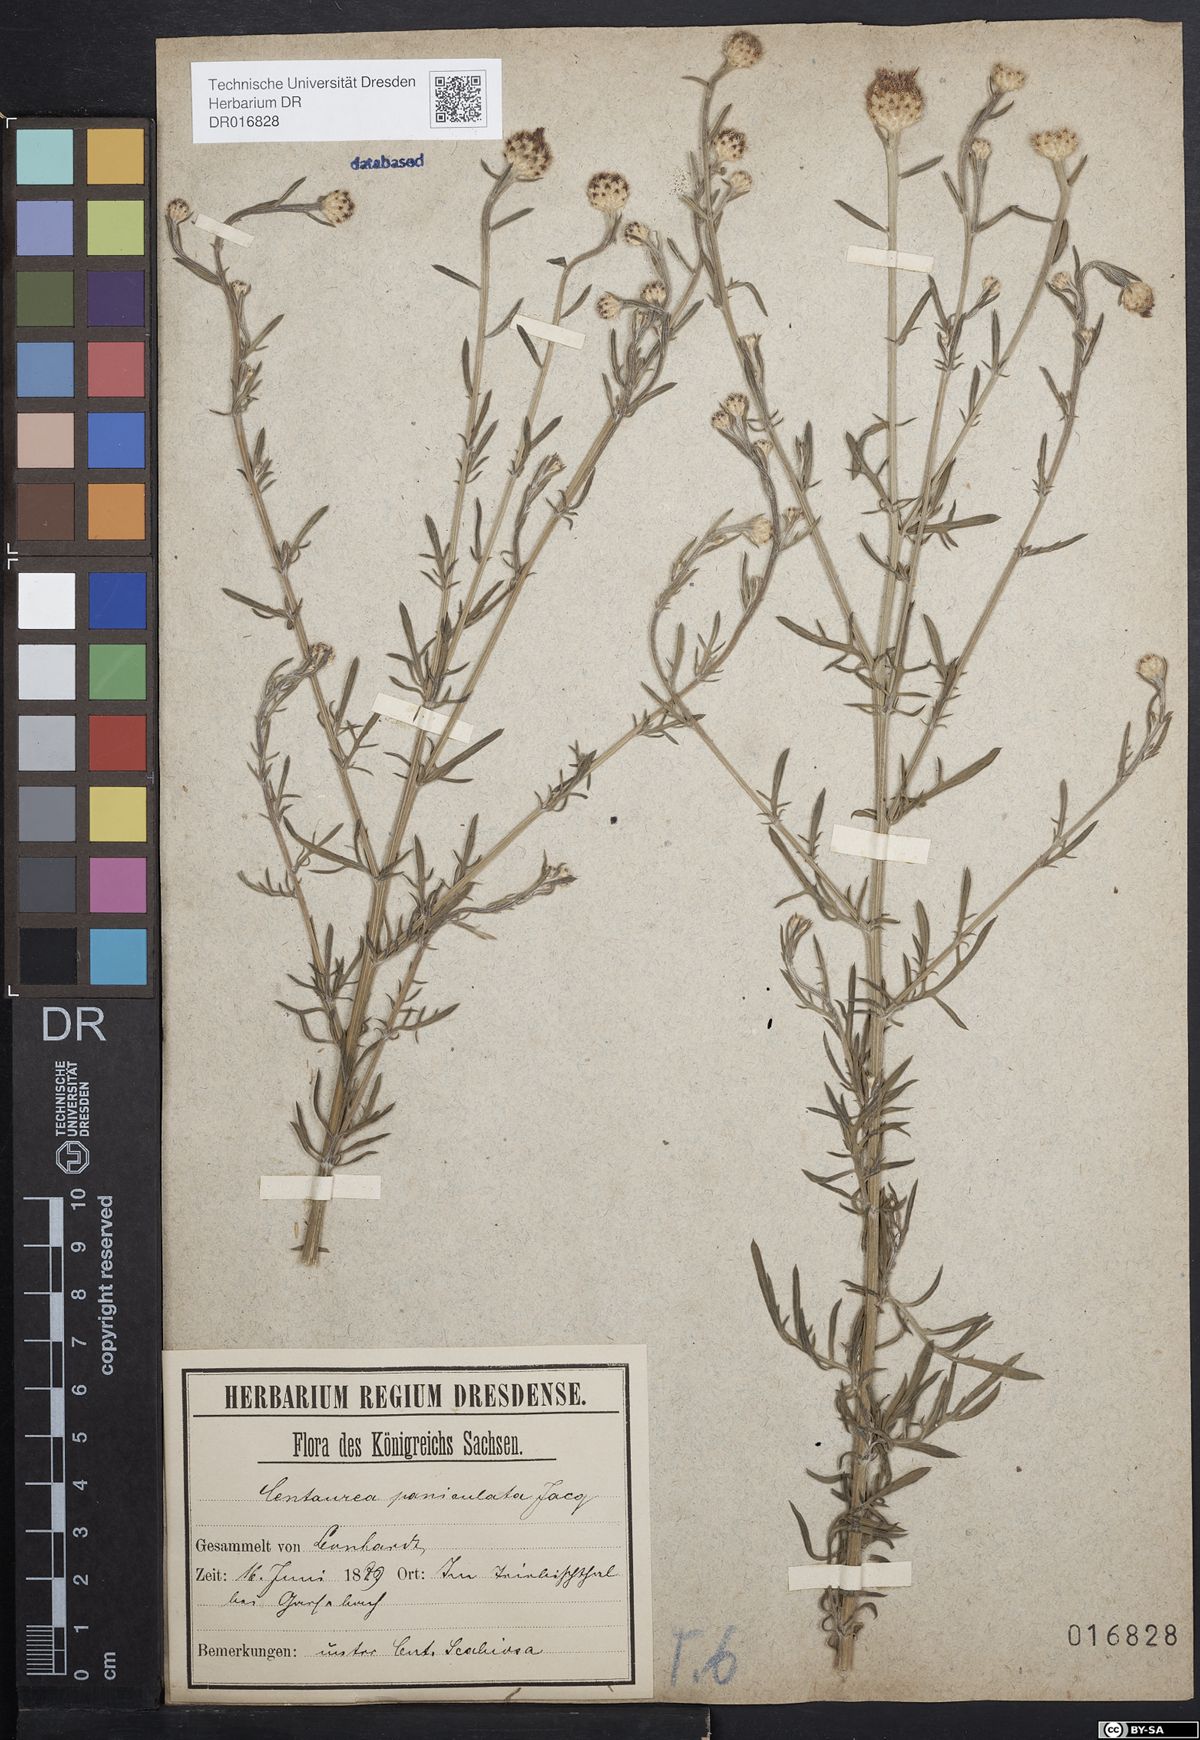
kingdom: Plantae
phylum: Tracheophyta
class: Magnoliopsida
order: Asterales
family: Asteraceae
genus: Centaurea
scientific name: Centaurea stoebe
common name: Spotted knapweed
